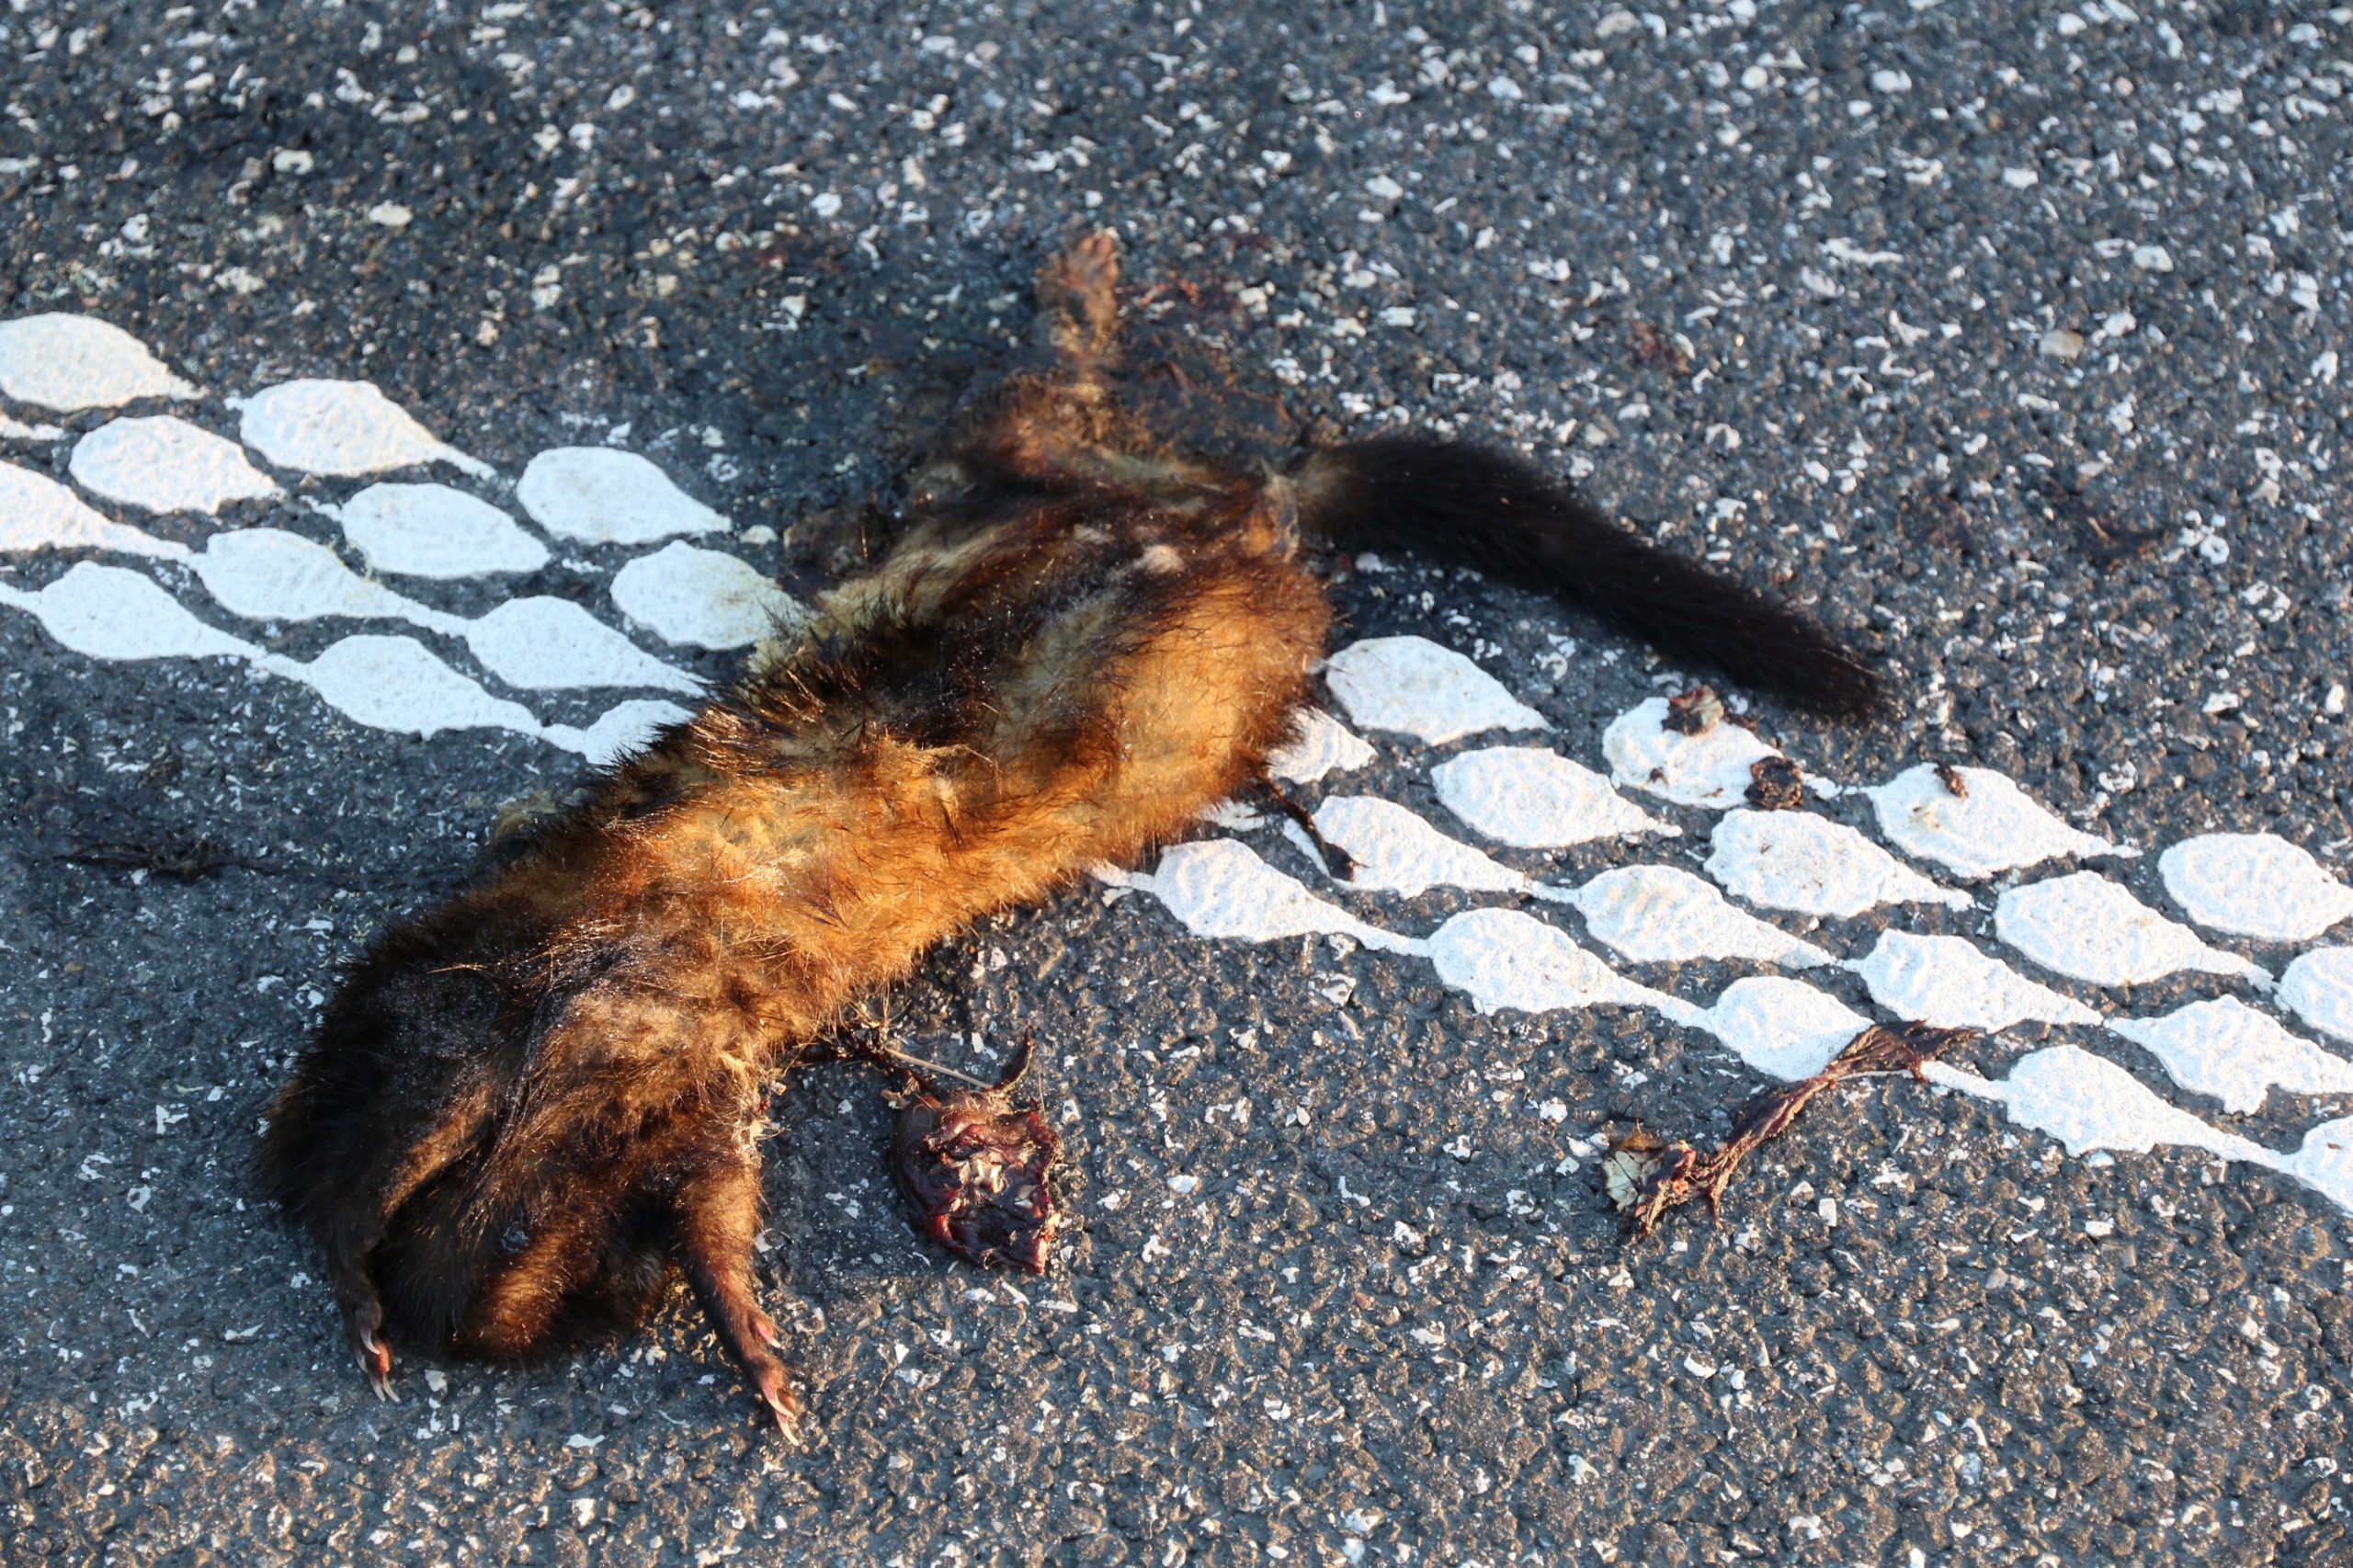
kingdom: Animalia
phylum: Chordata
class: Mammalia
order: Carnivora
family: Mustelidae
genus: Mustela
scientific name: Mustela vison
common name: Mink
